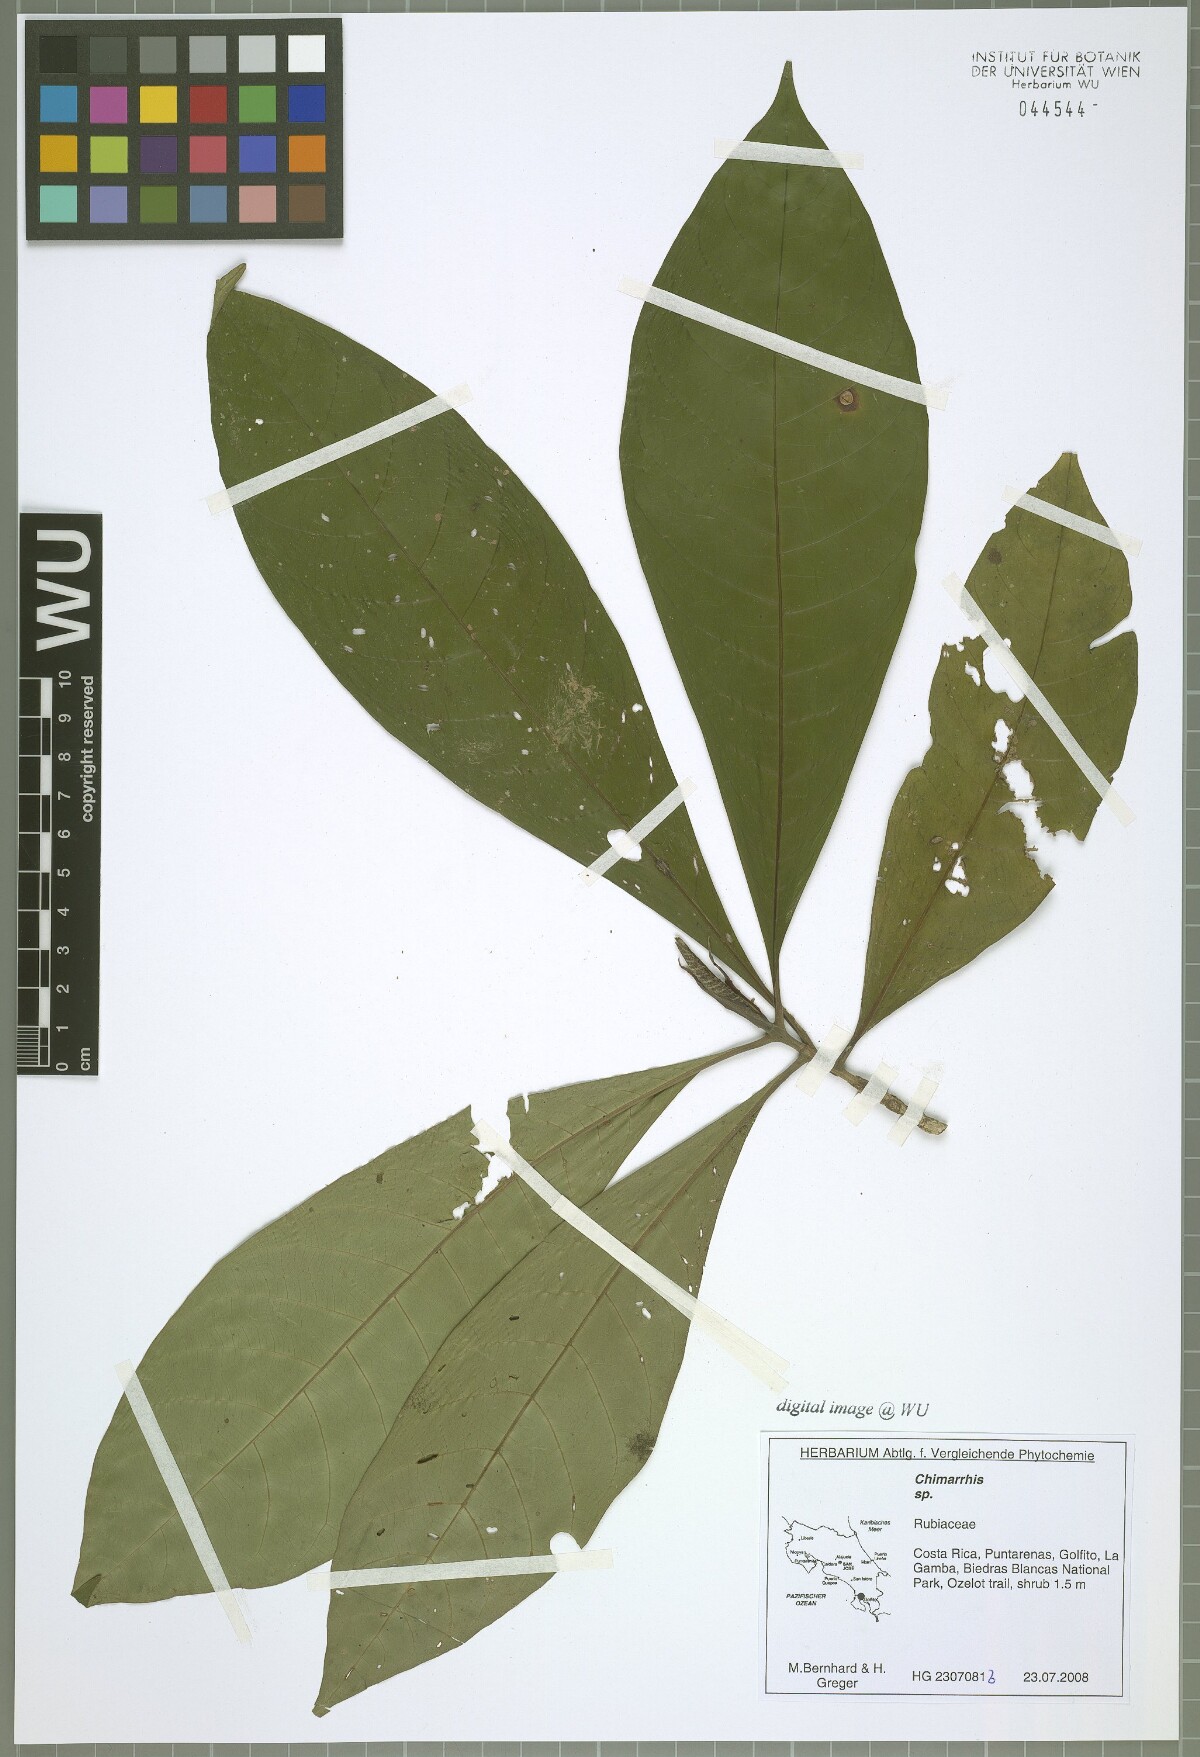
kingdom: Plantae
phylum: Tracheophyta
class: Magnoliopsida
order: Gentianales
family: Rubiaceae
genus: Chimarrhis
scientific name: Chimarrhis
